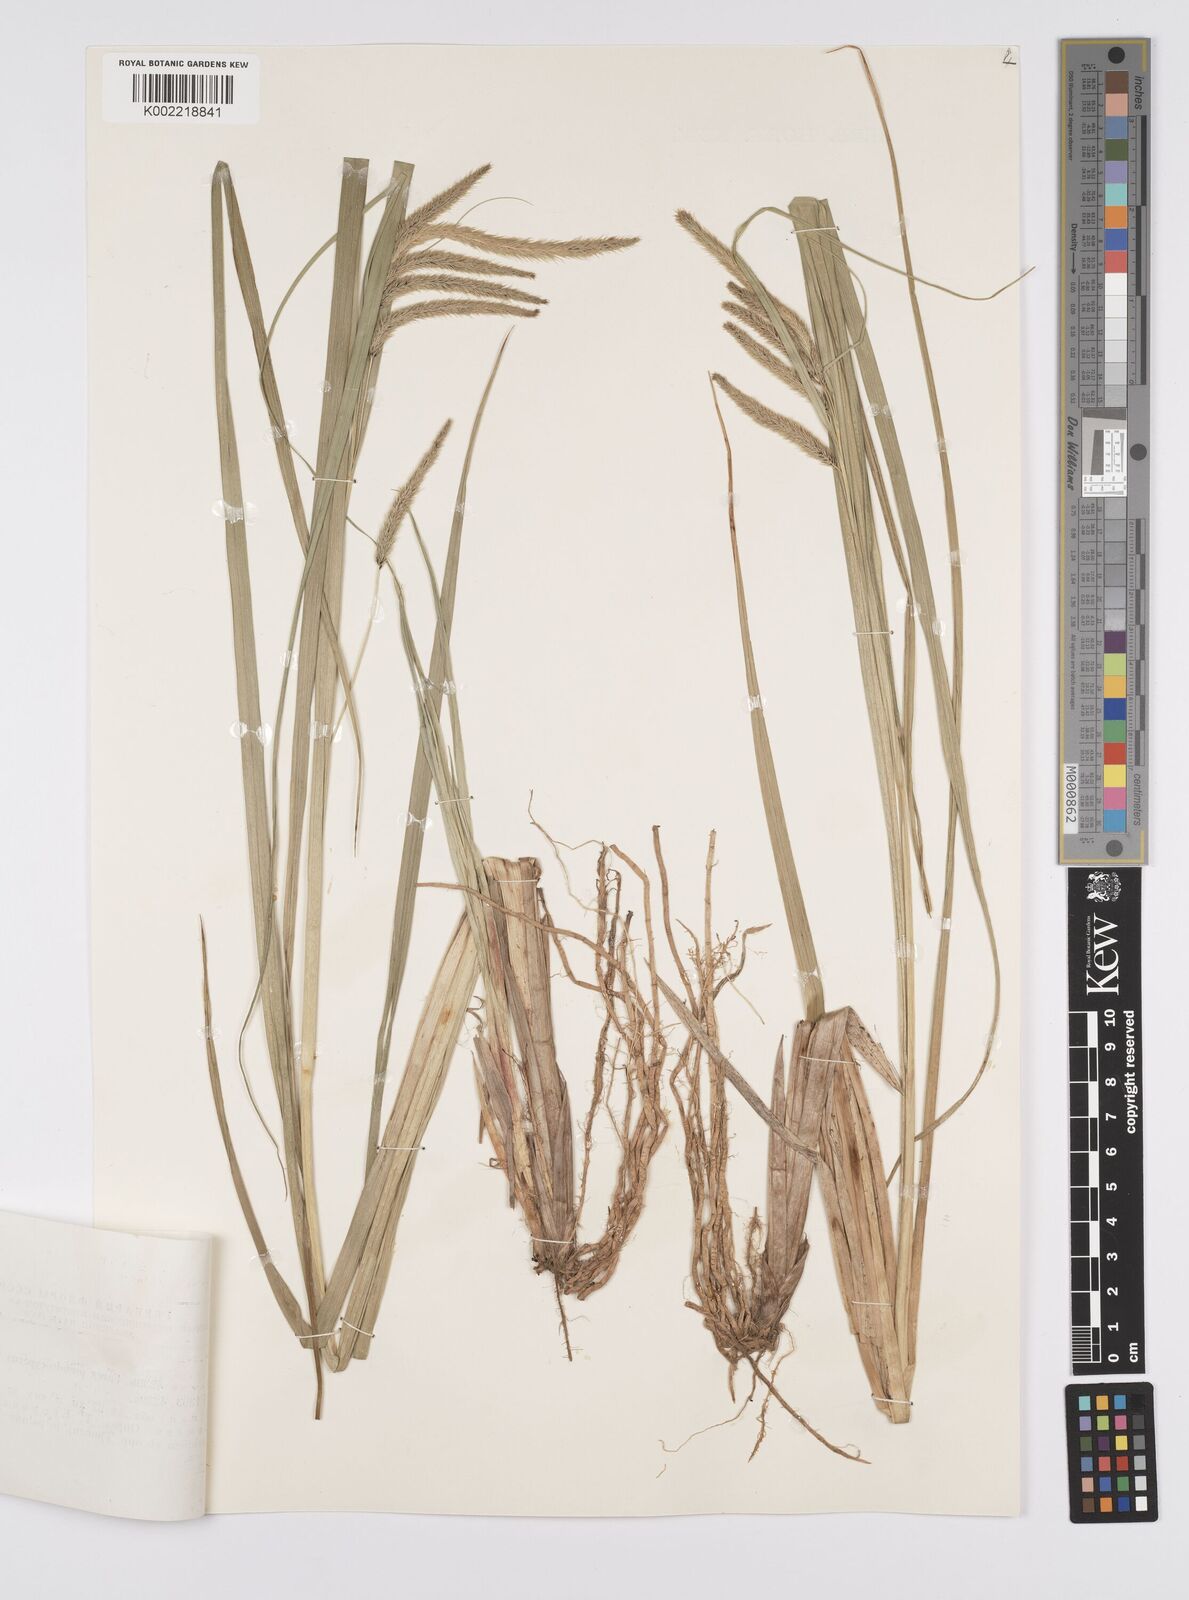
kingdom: Plantae
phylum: Tracheophyta
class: Liliopsida
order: Poales
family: Cyperaceae
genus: Carex
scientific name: Carex pseudocyperus
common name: Cyperus sedge
